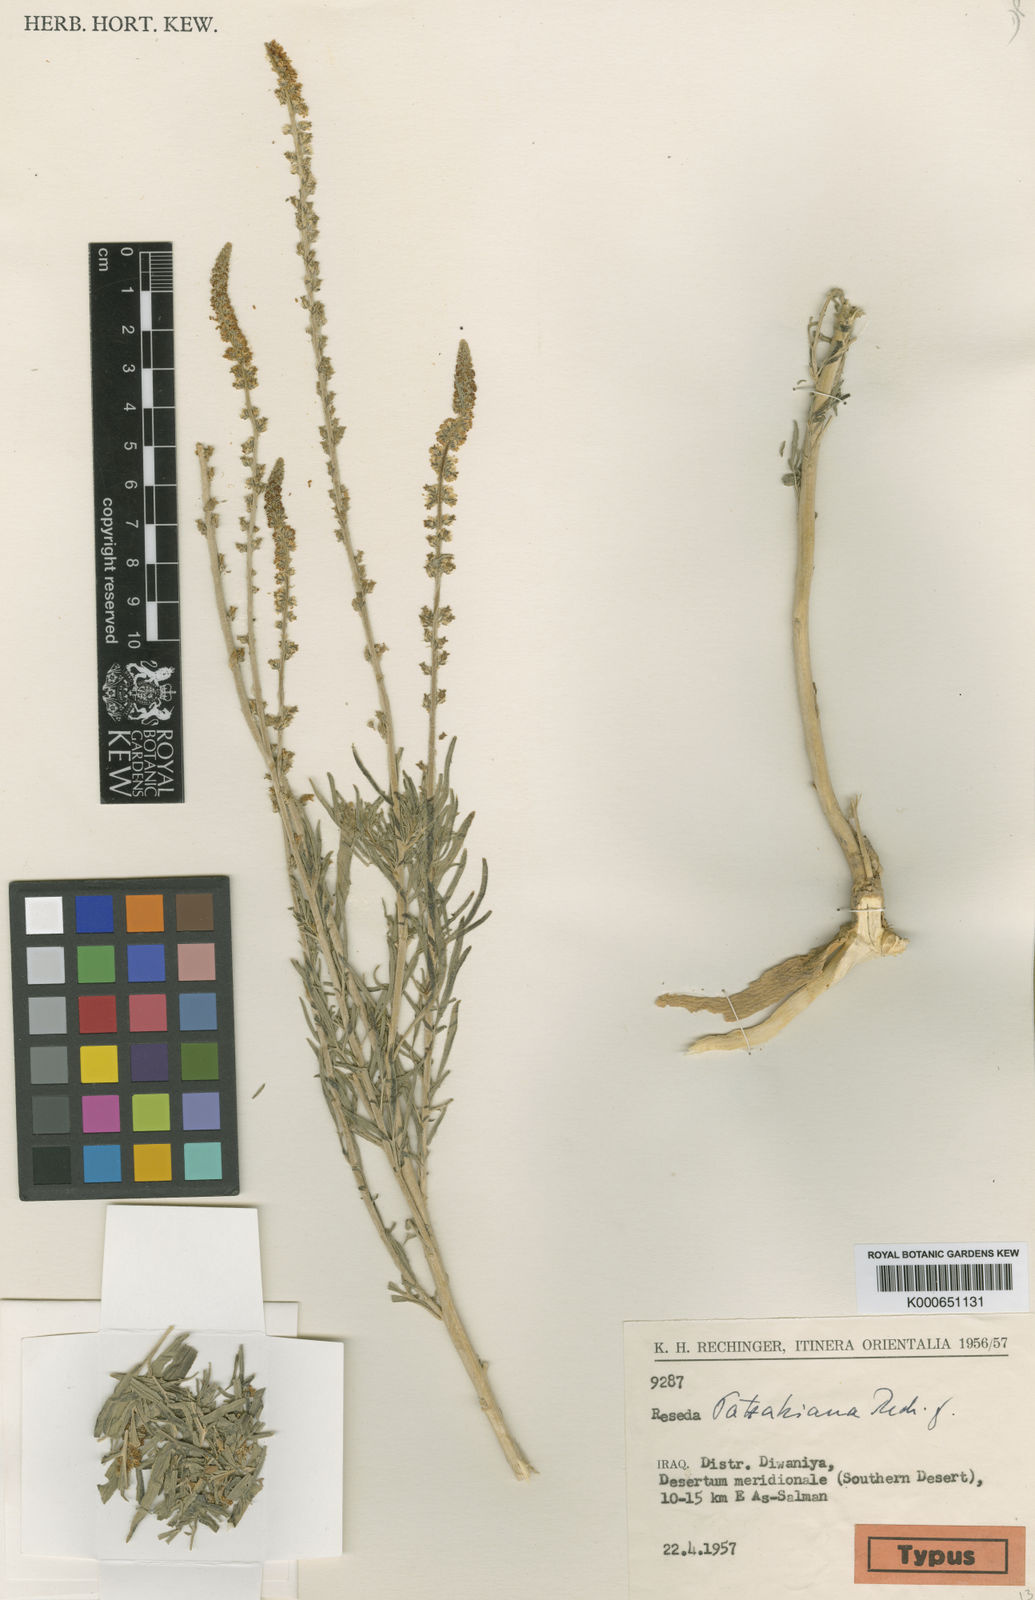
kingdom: Plantae
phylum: Tracheophyta
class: Magnoliopsida
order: Brassicales
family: Resedaceae
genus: Reseda
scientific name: Reseda muricata
